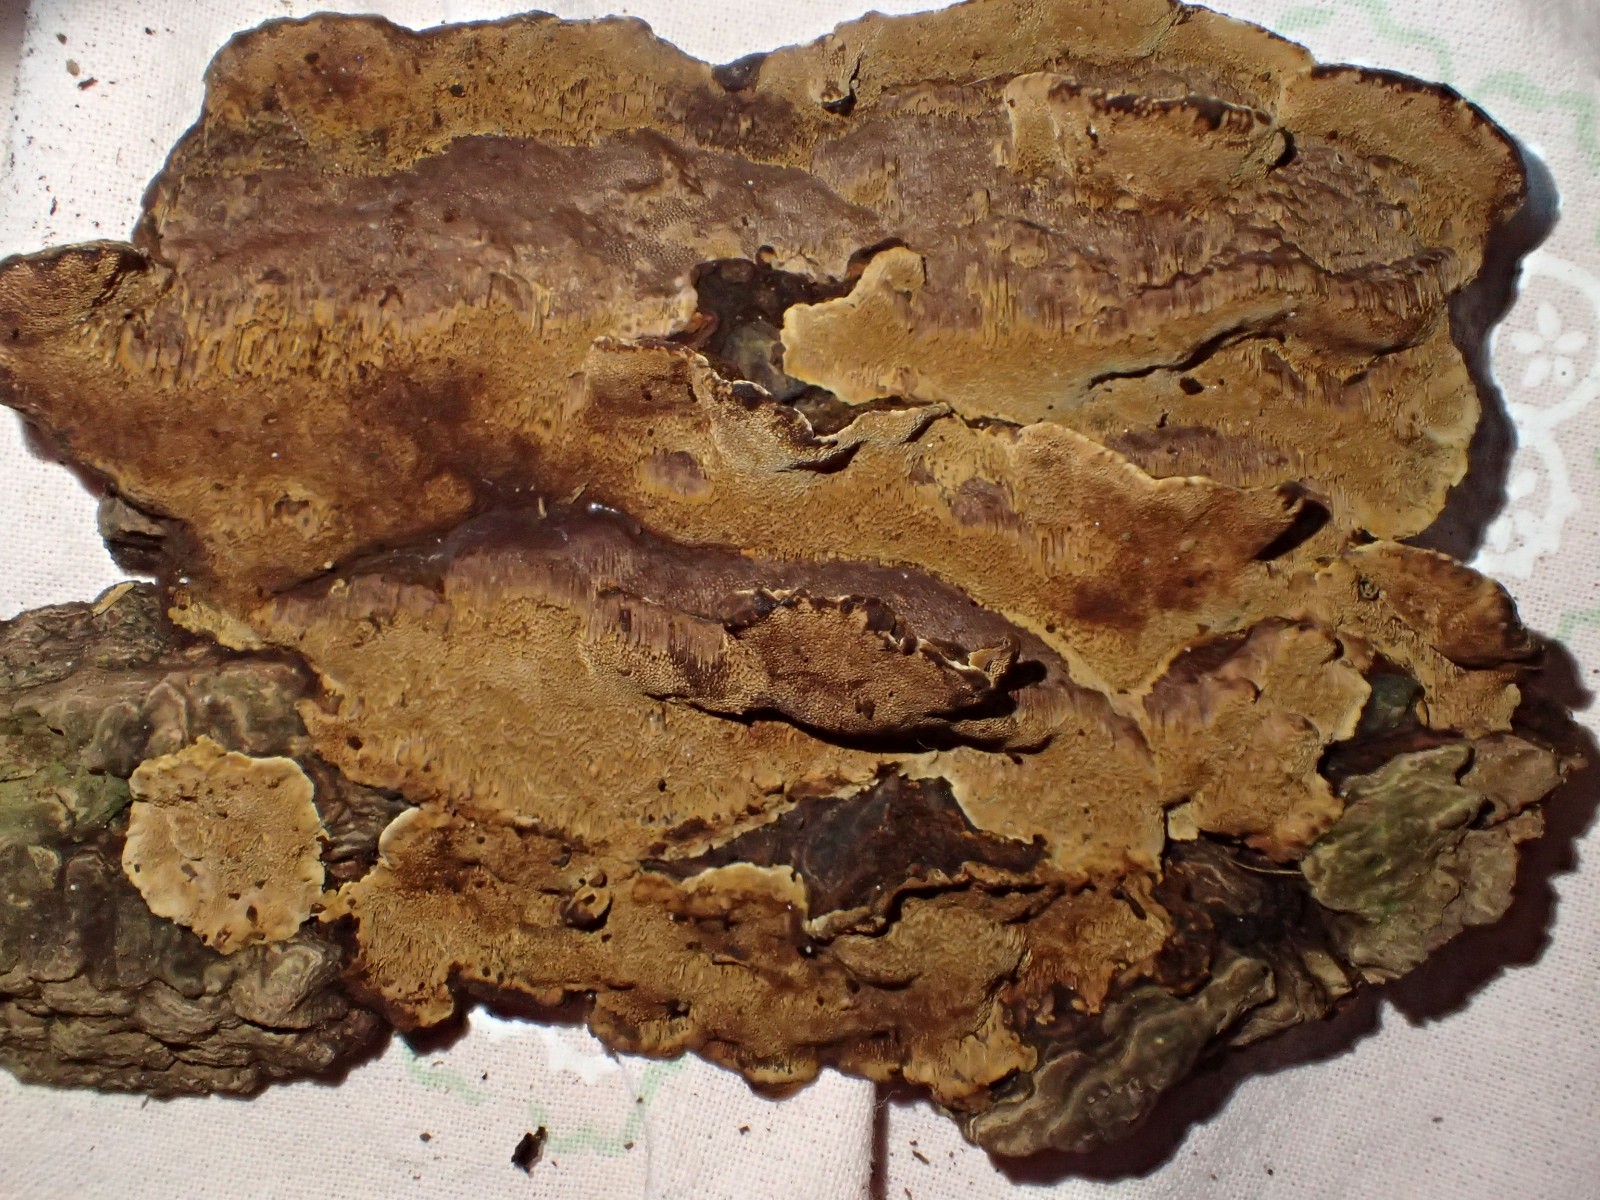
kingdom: Fungi
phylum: Basidiomycota
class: Agaricomycetes
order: Hymenochaetales
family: Hymenochaetaceae
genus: Phellinopsis
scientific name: Phellinopsis conchata
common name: pile-ildporesvamp
